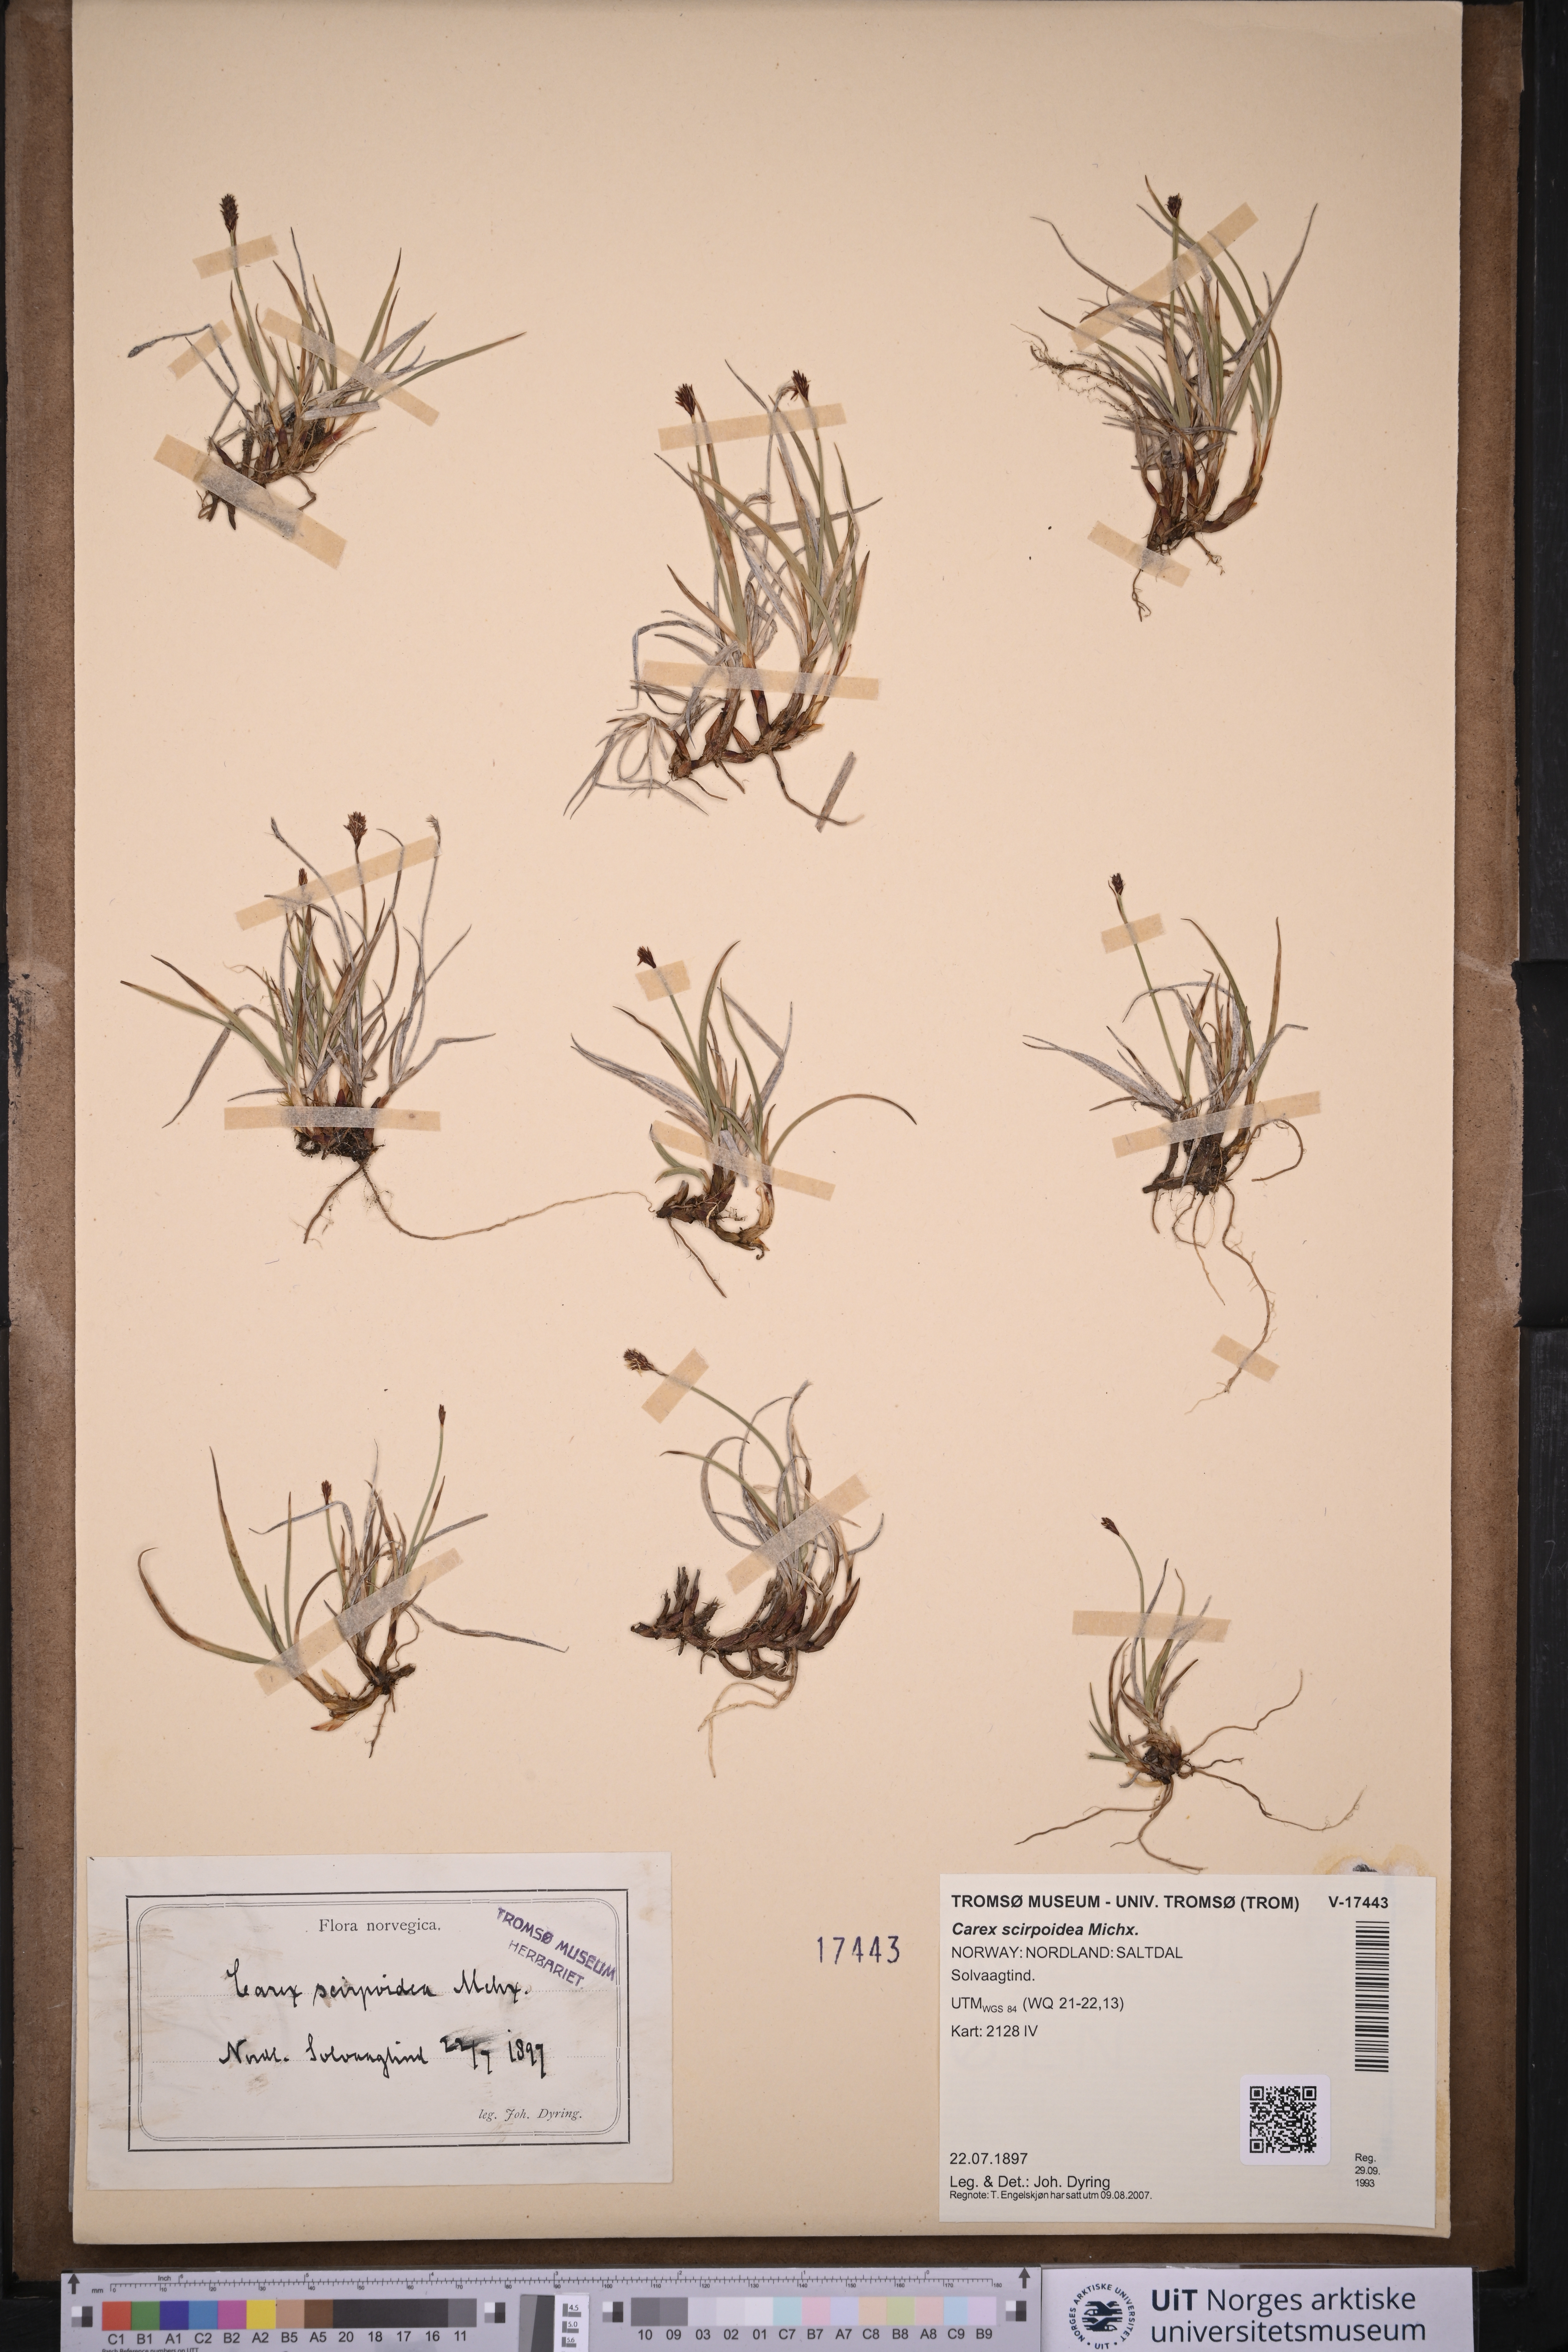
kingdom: Plantae
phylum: Tracheophyta
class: Liliopsida
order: Poales
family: Cyperaceae
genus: Carex
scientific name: Carex scirpoidea
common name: Canada single-spike sedge
